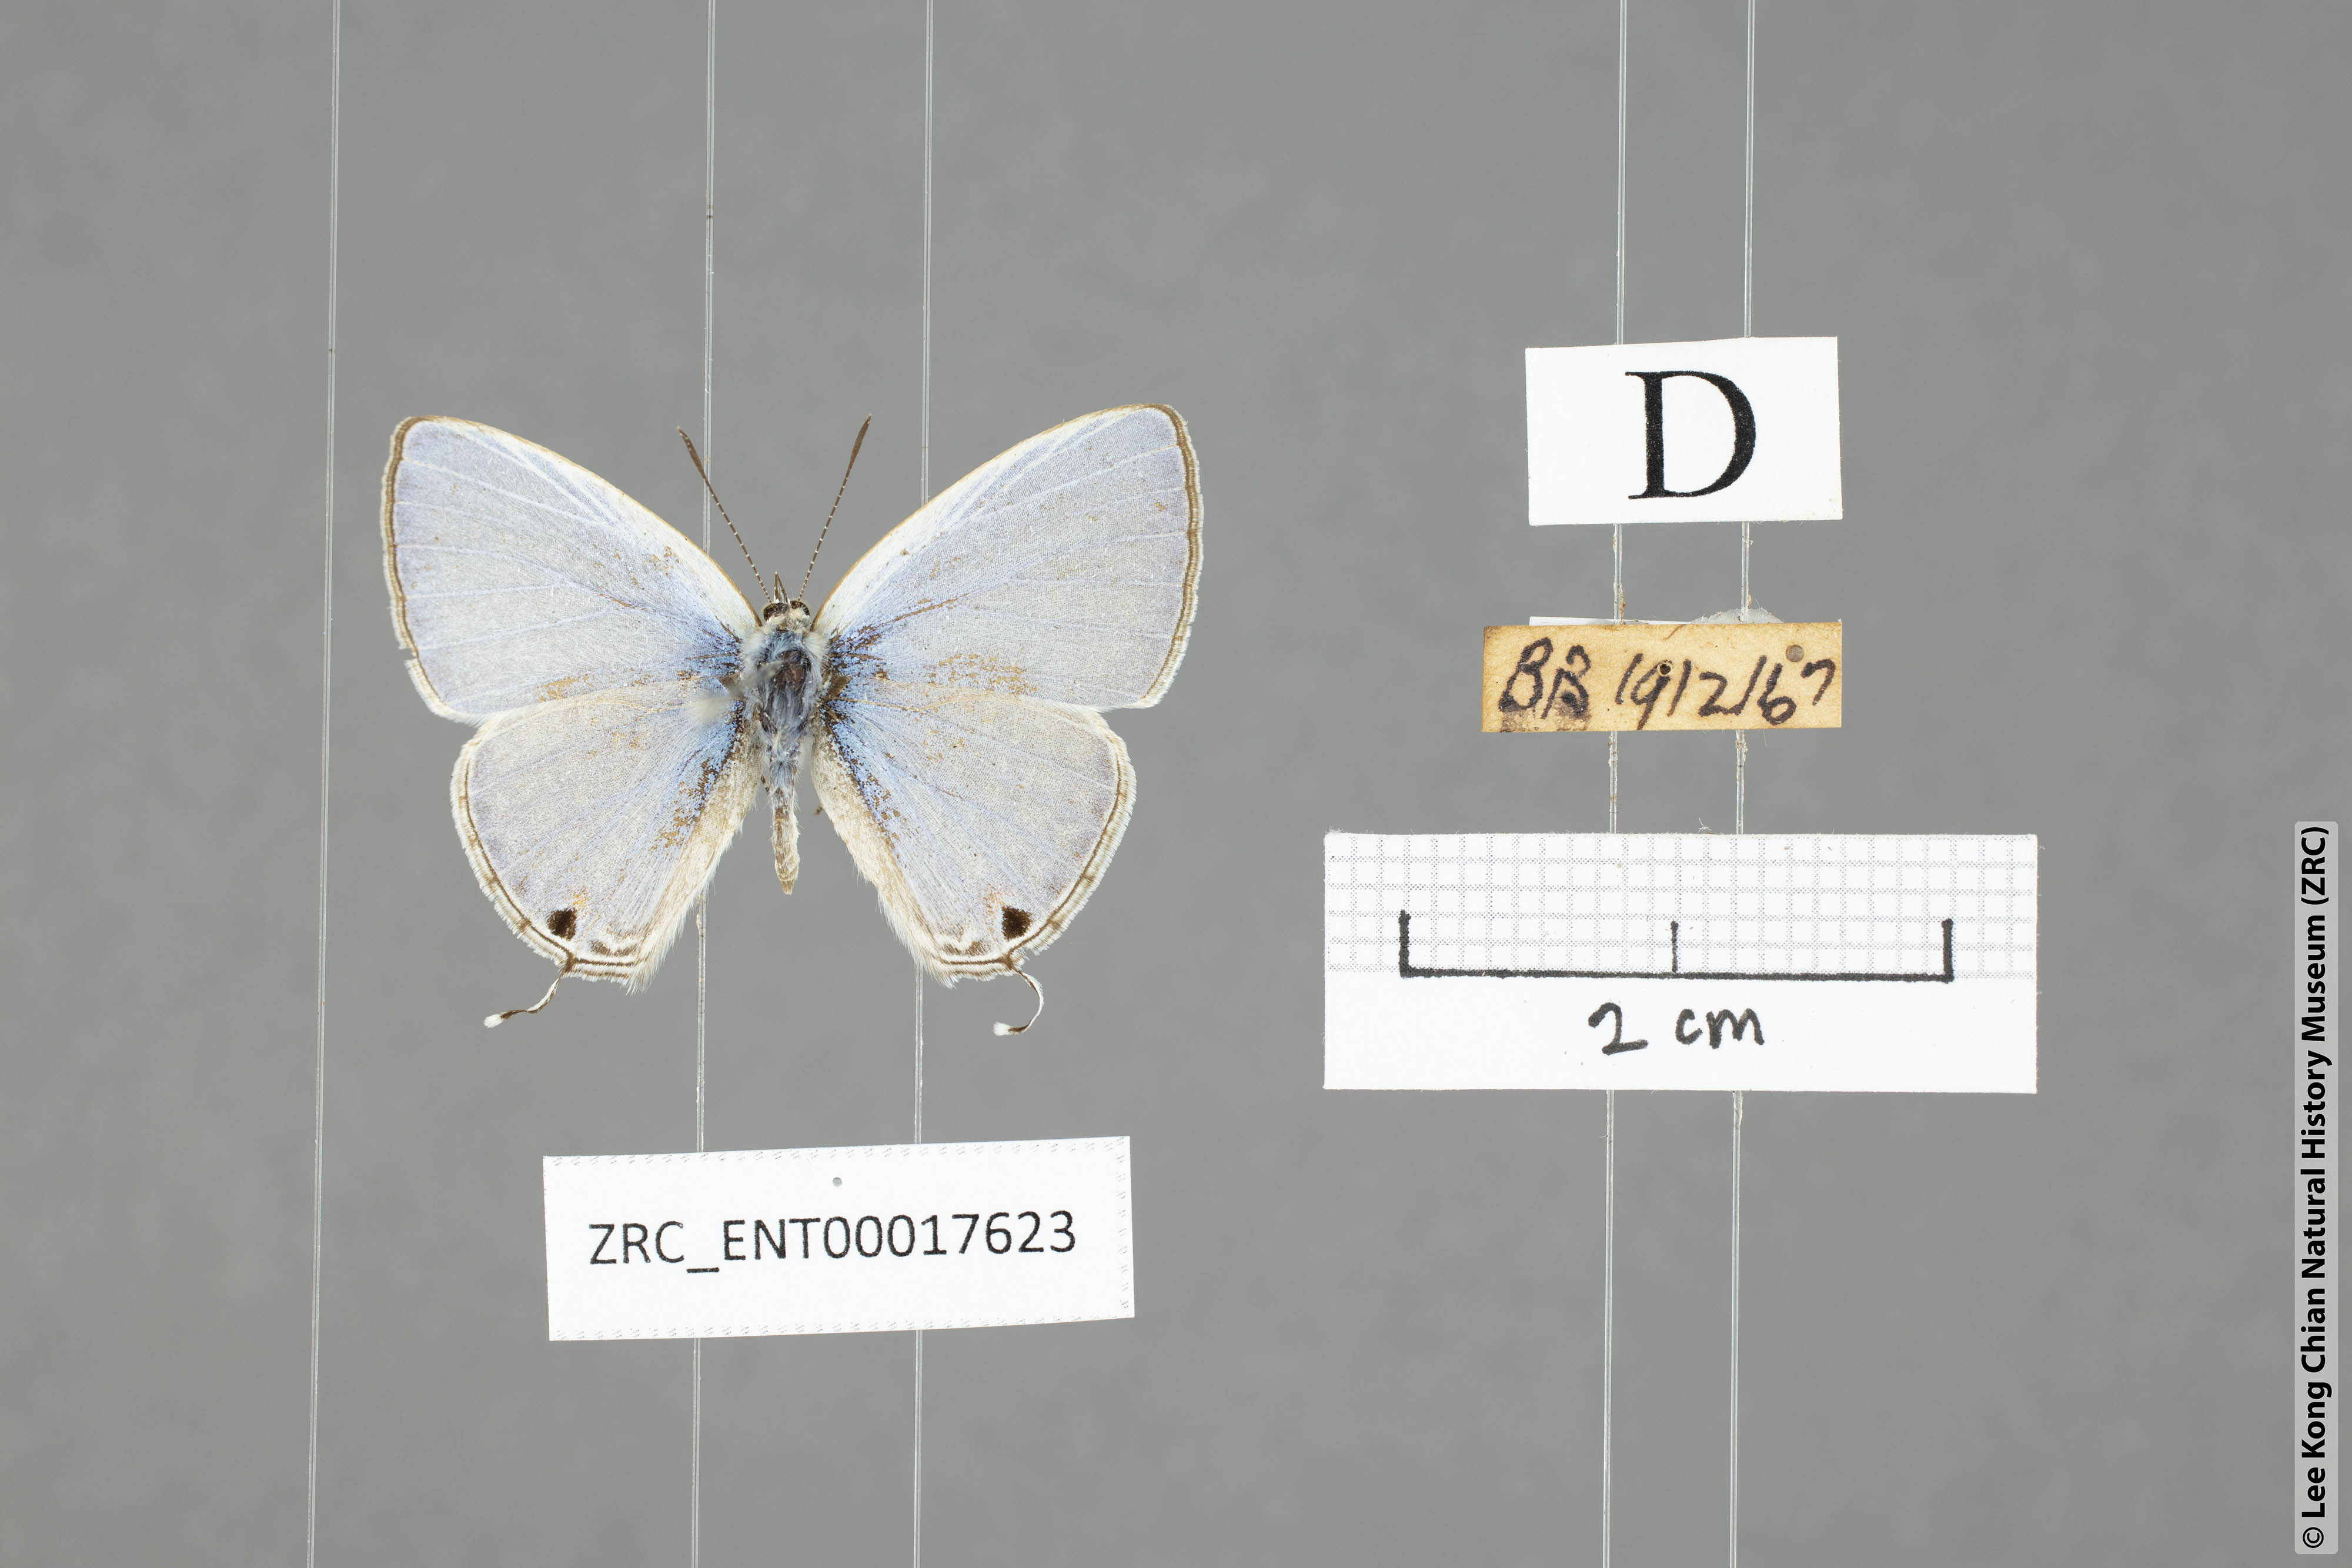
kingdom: Animalia
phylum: Arthropoda
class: Insecta
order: Lepidoptera
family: Lycaenidae
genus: Catochrysops
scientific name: Catochrysops panormus
